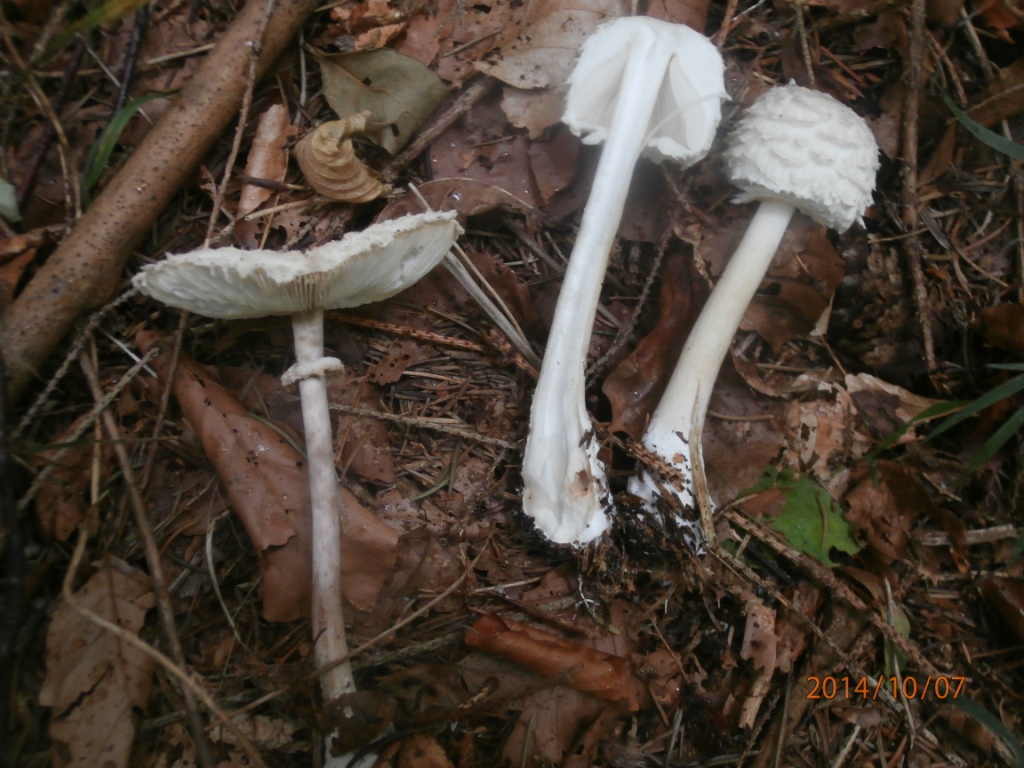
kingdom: Fungi
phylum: Basidiomycota
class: Agaricomycetes
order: Agaricales
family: Agaricaceae
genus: Leucoagaricus
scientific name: Leucoagaricus nympharum
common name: gran-silkehat
